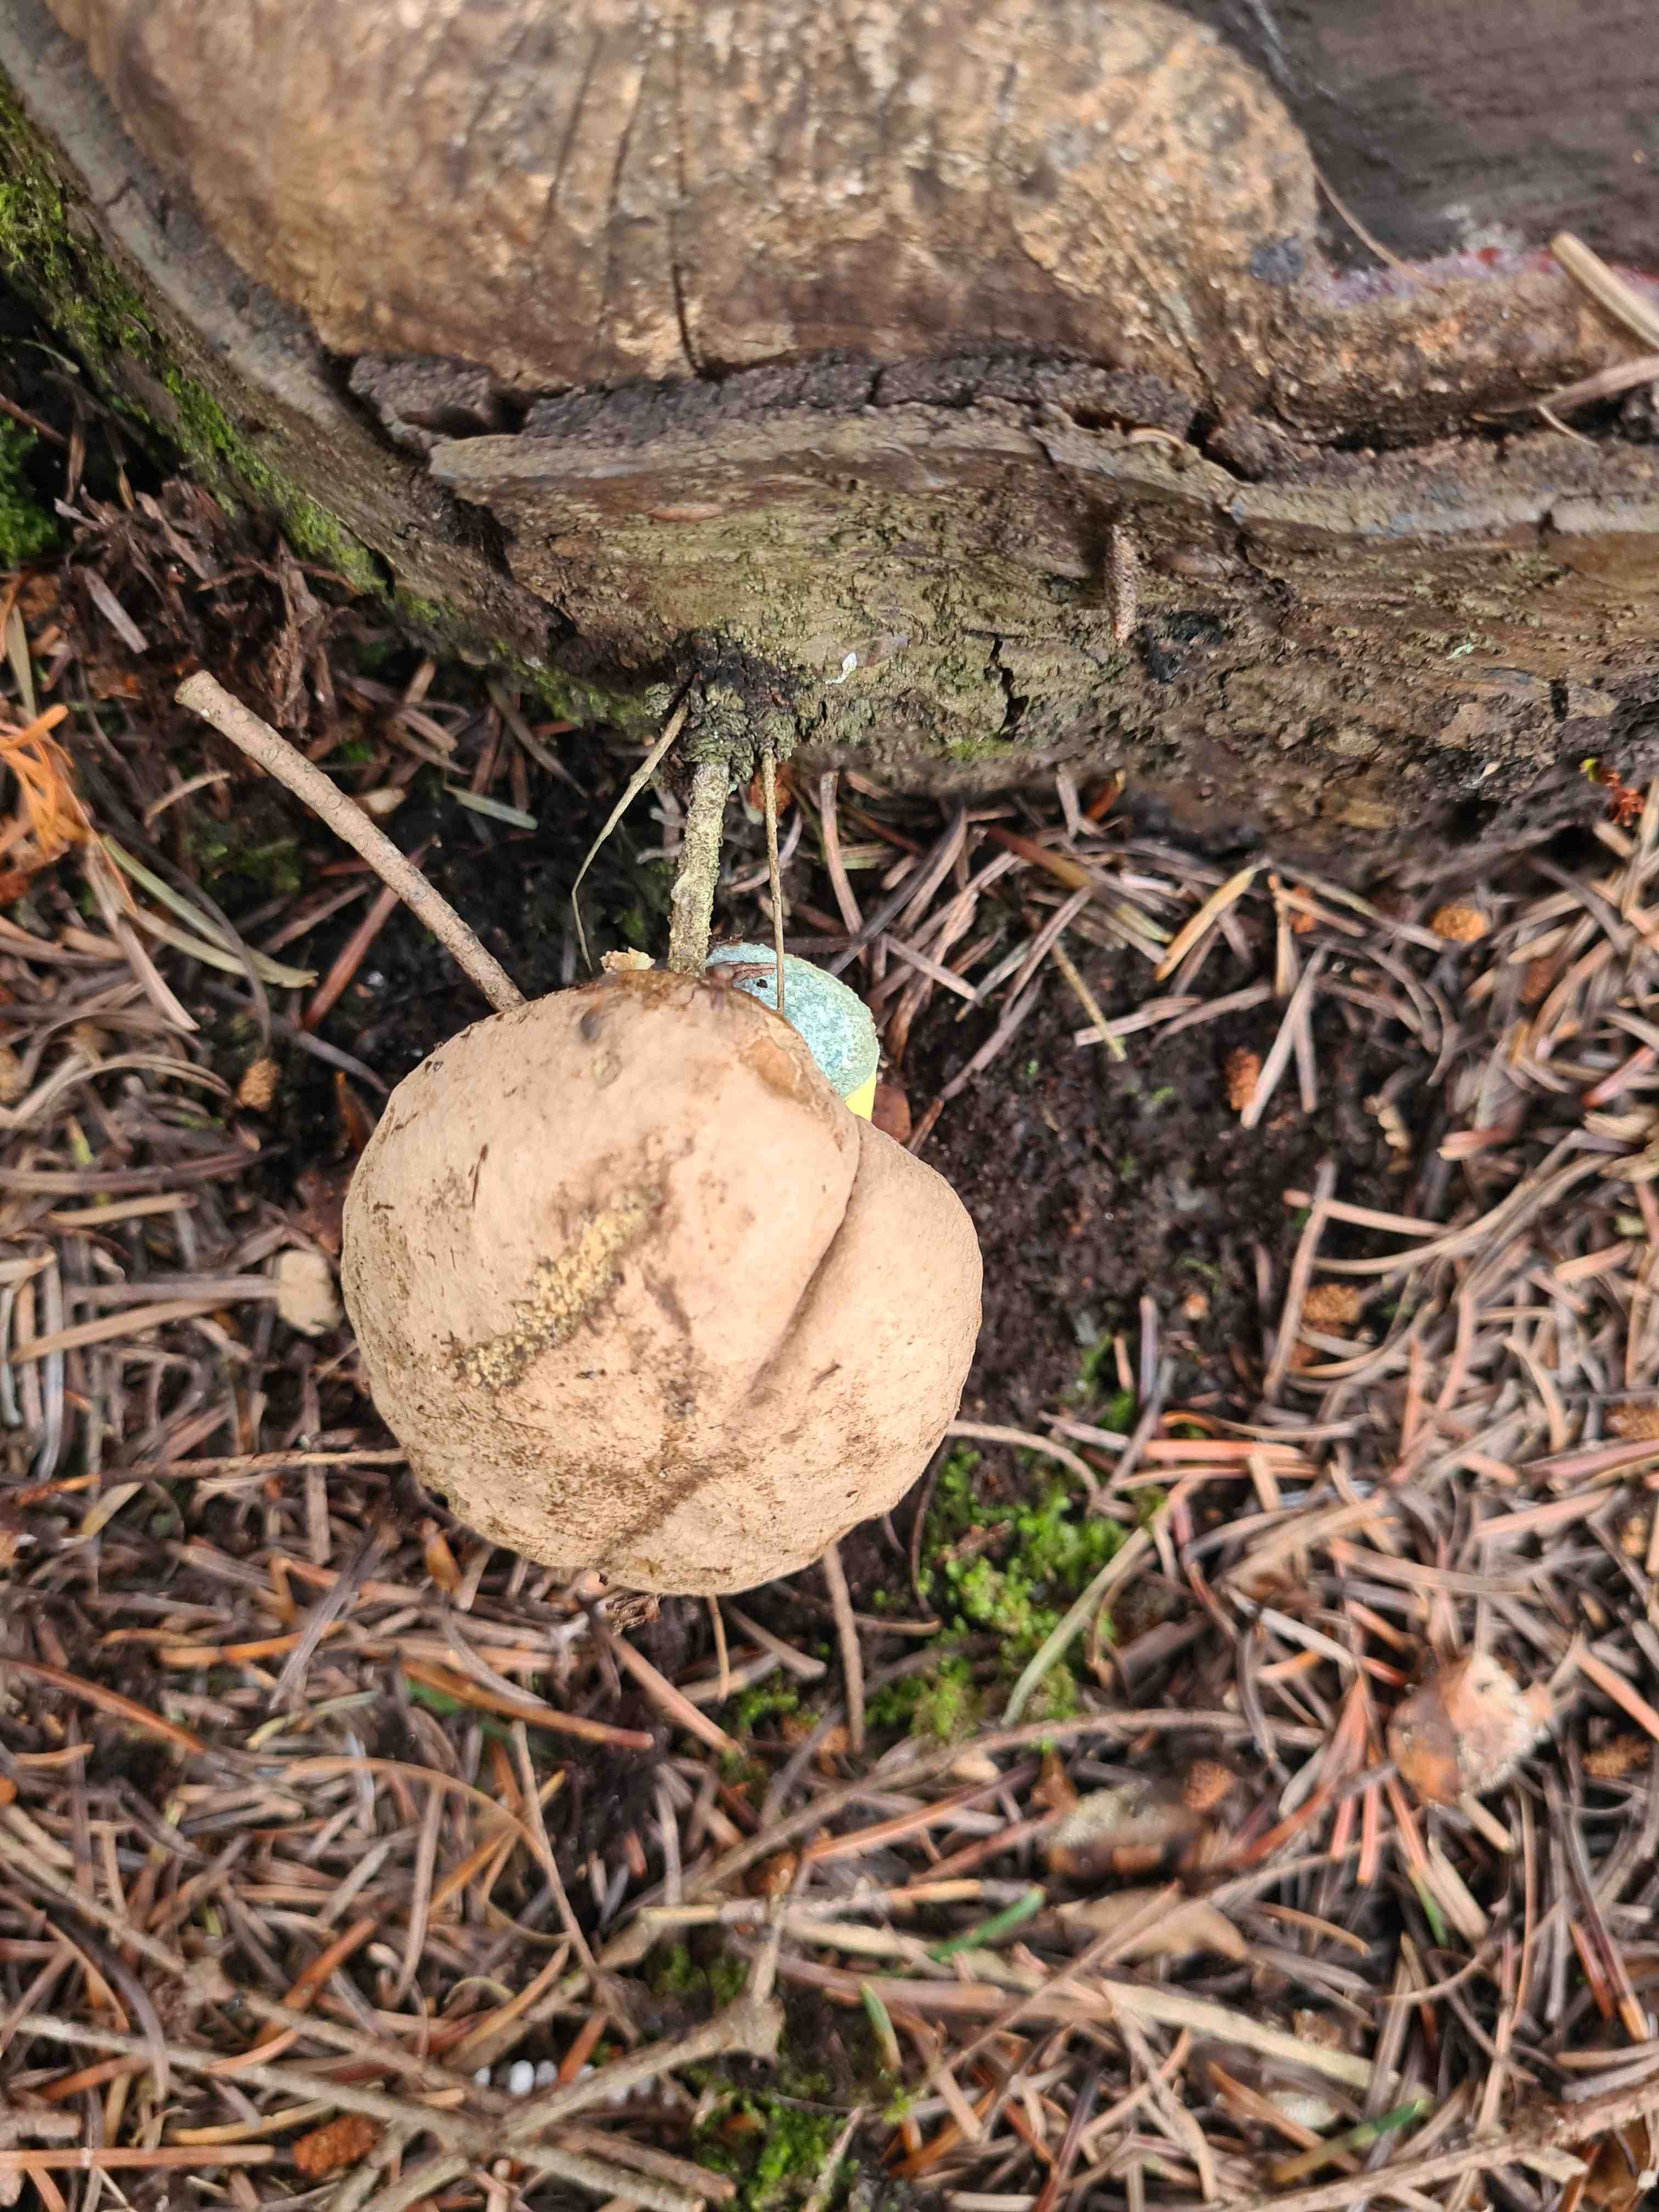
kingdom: Fungi
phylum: Basidiomycota
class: Agaricomycetes
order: Boletales
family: Boletaceae
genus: Caloboletus
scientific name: Caloboletus calopus
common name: skønfodet rørhat
